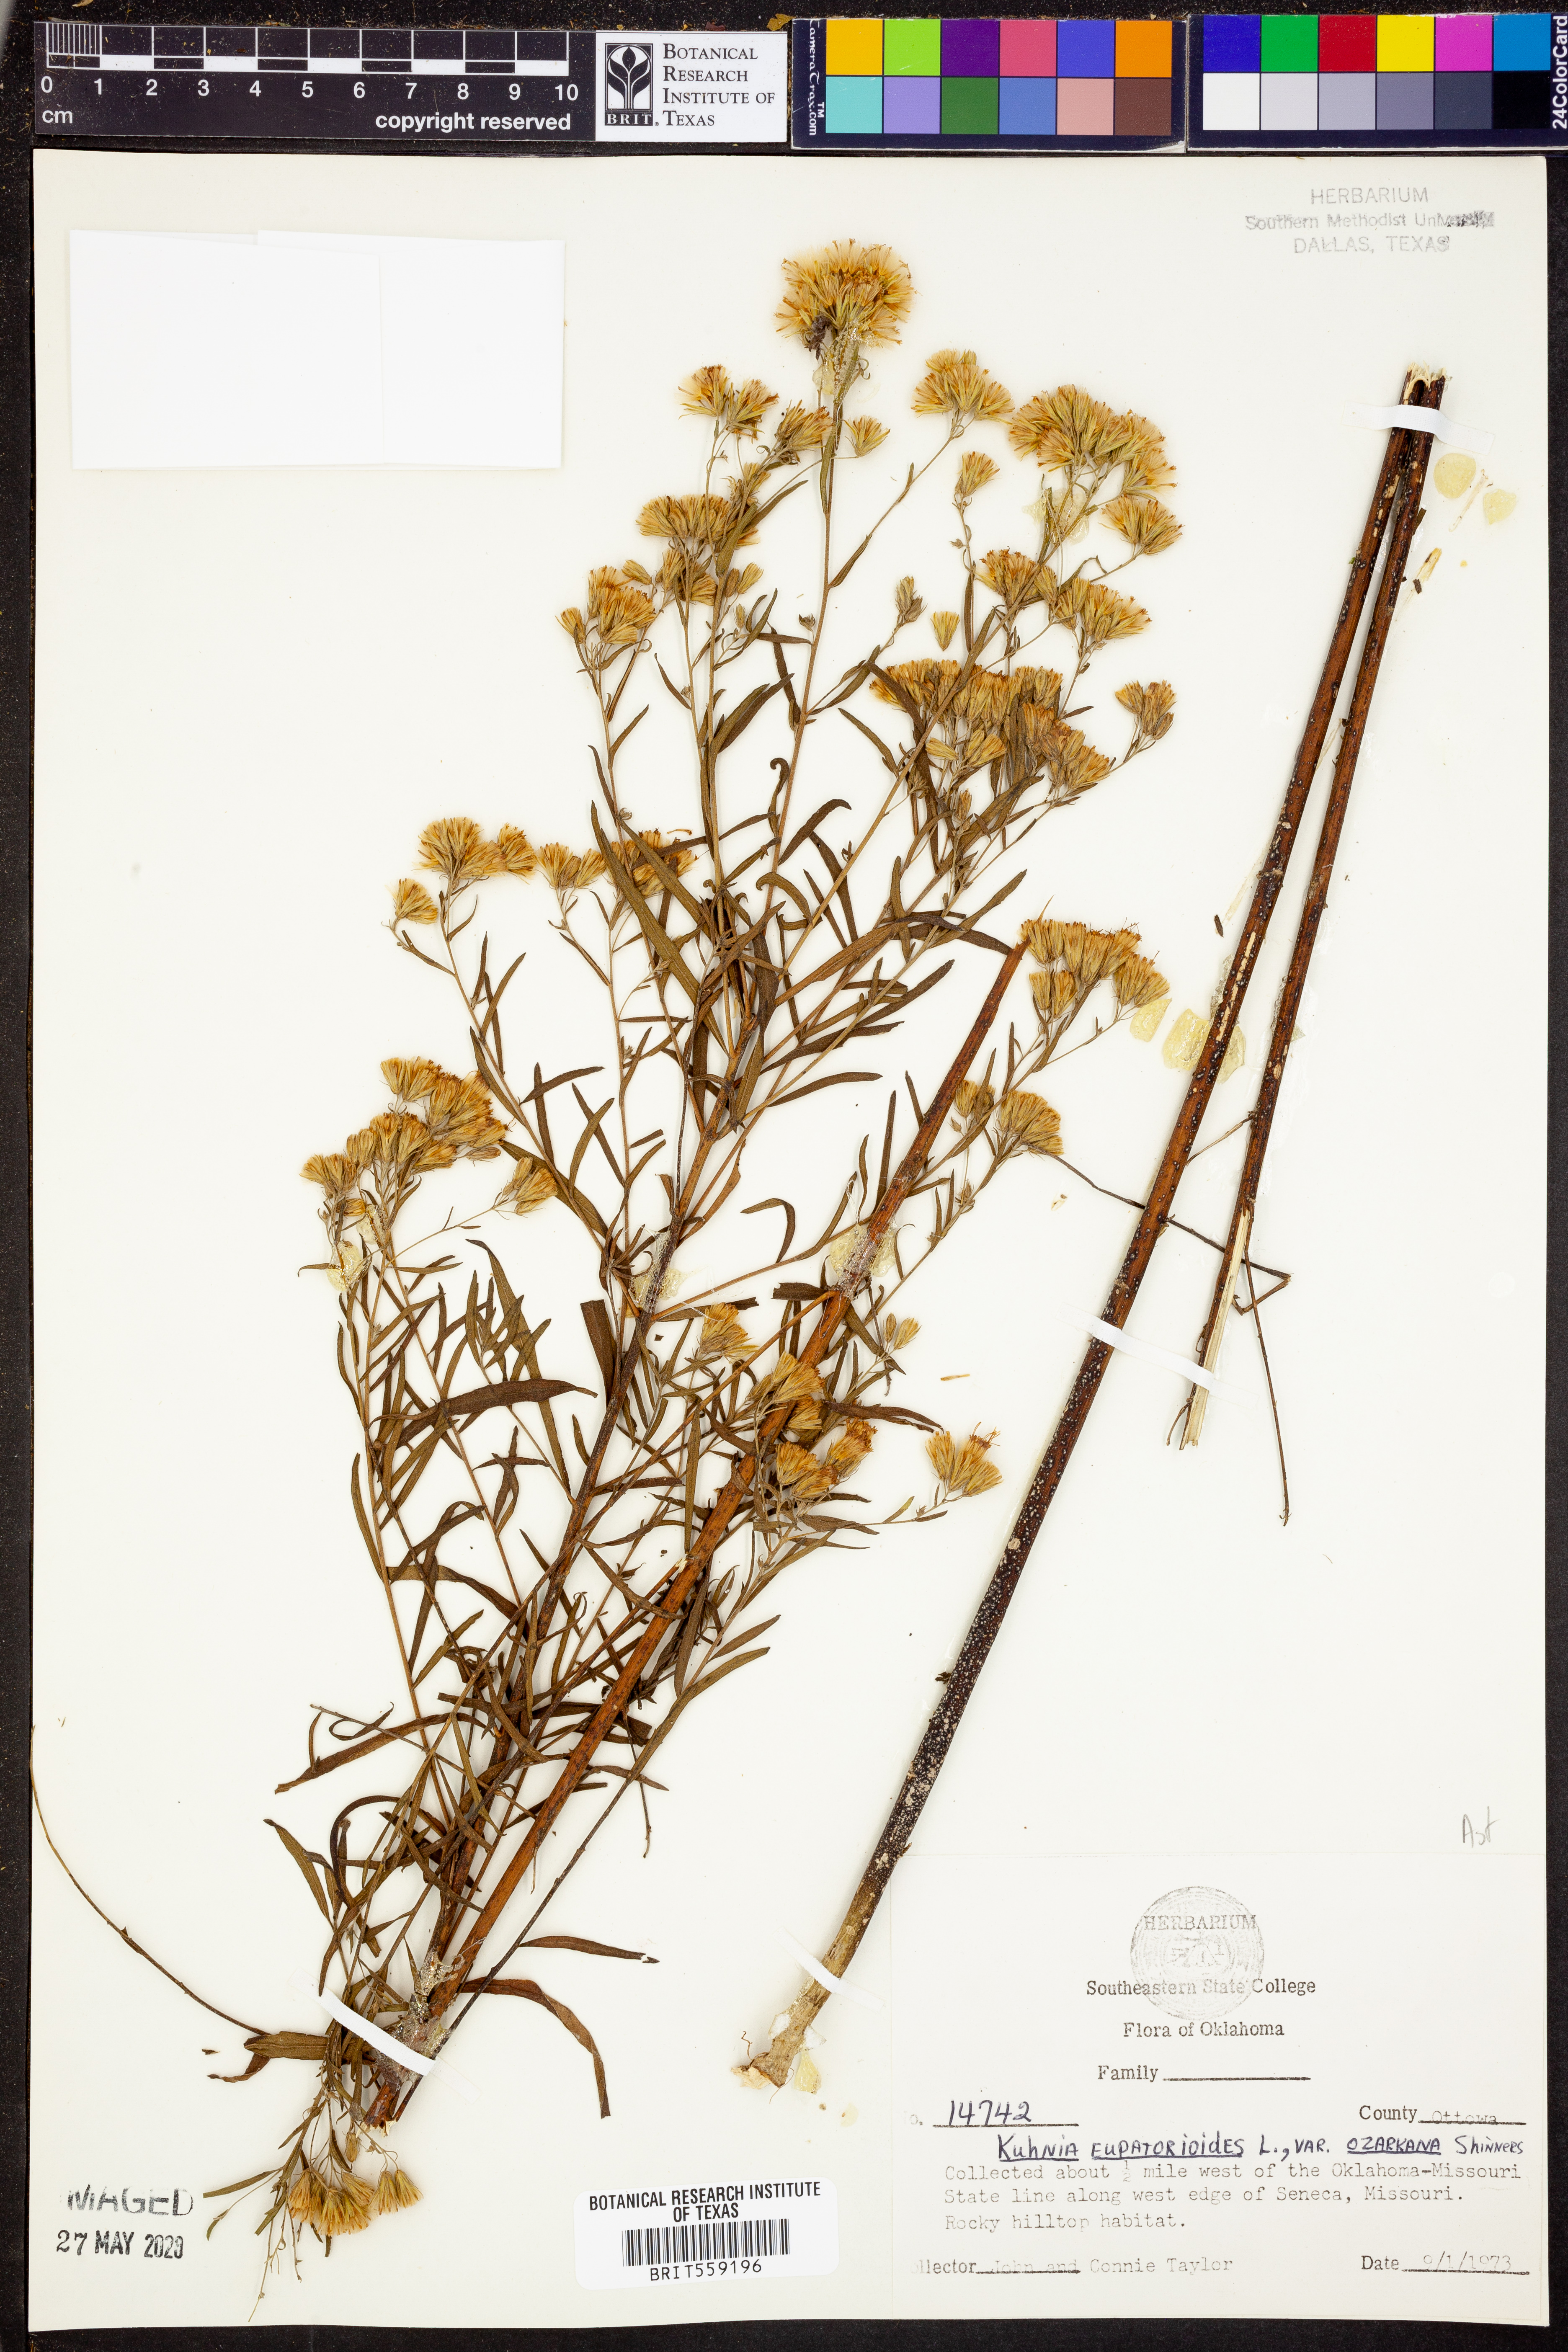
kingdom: Plantae
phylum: Tracheophyta
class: Magnoliopsida
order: Asterales
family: Asteraceae
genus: Brickellia
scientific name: Brickellia ozarkana
